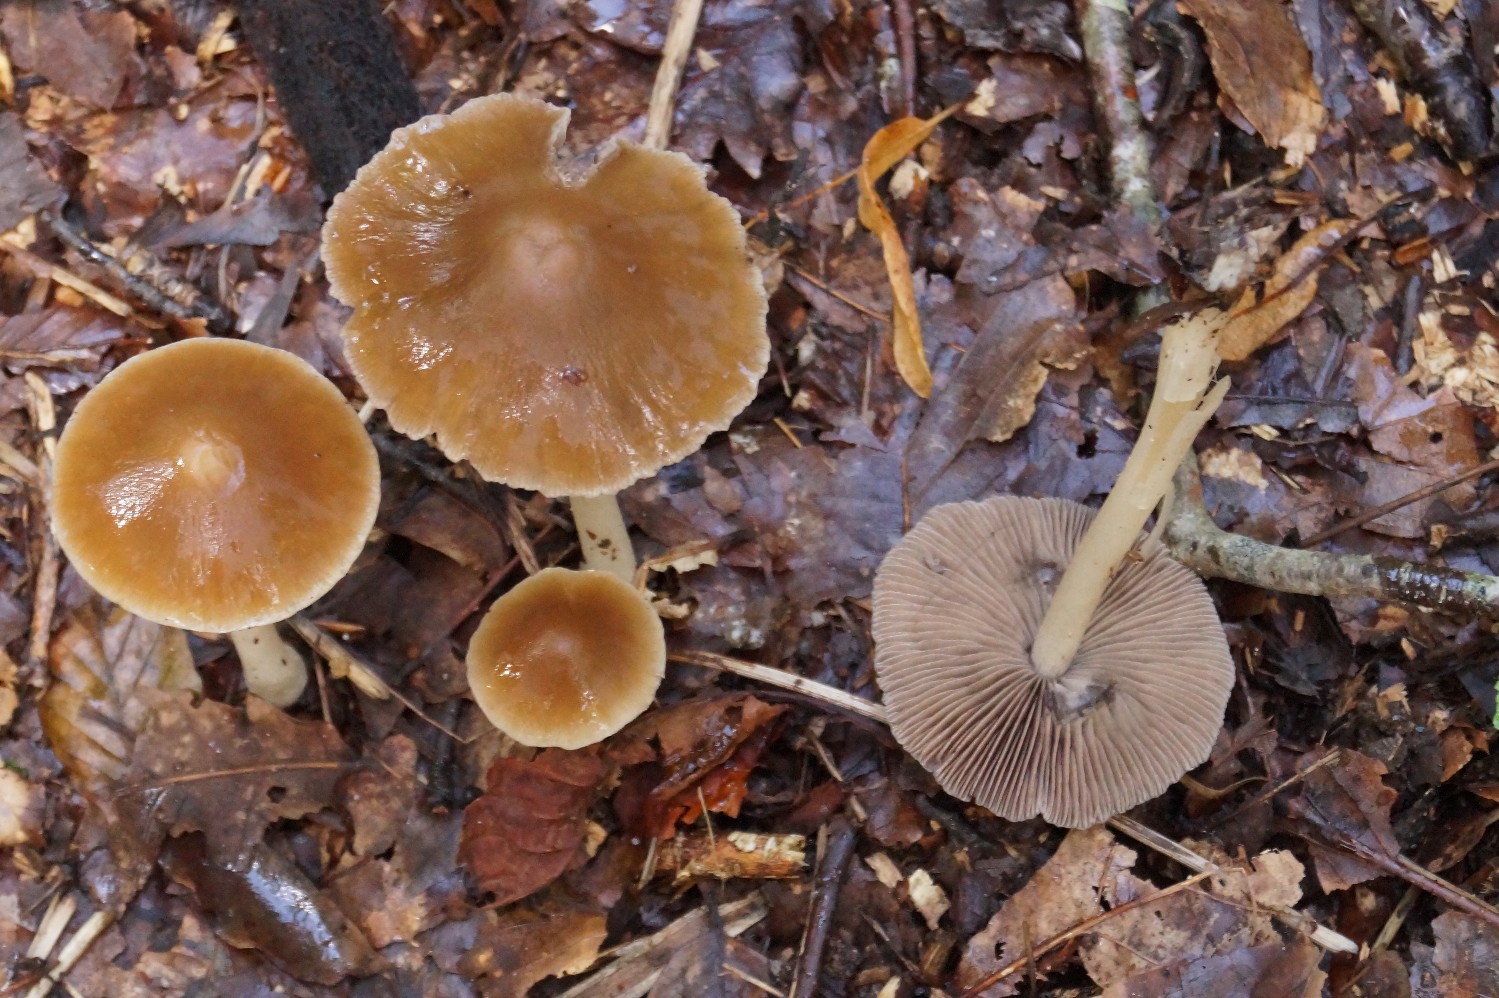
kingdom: Fungi
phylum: Basidiomycota
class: Agaricomycetes
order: Agaricales
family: Psathyrellaceae
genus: Psathyrella
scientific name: Psathyrella
